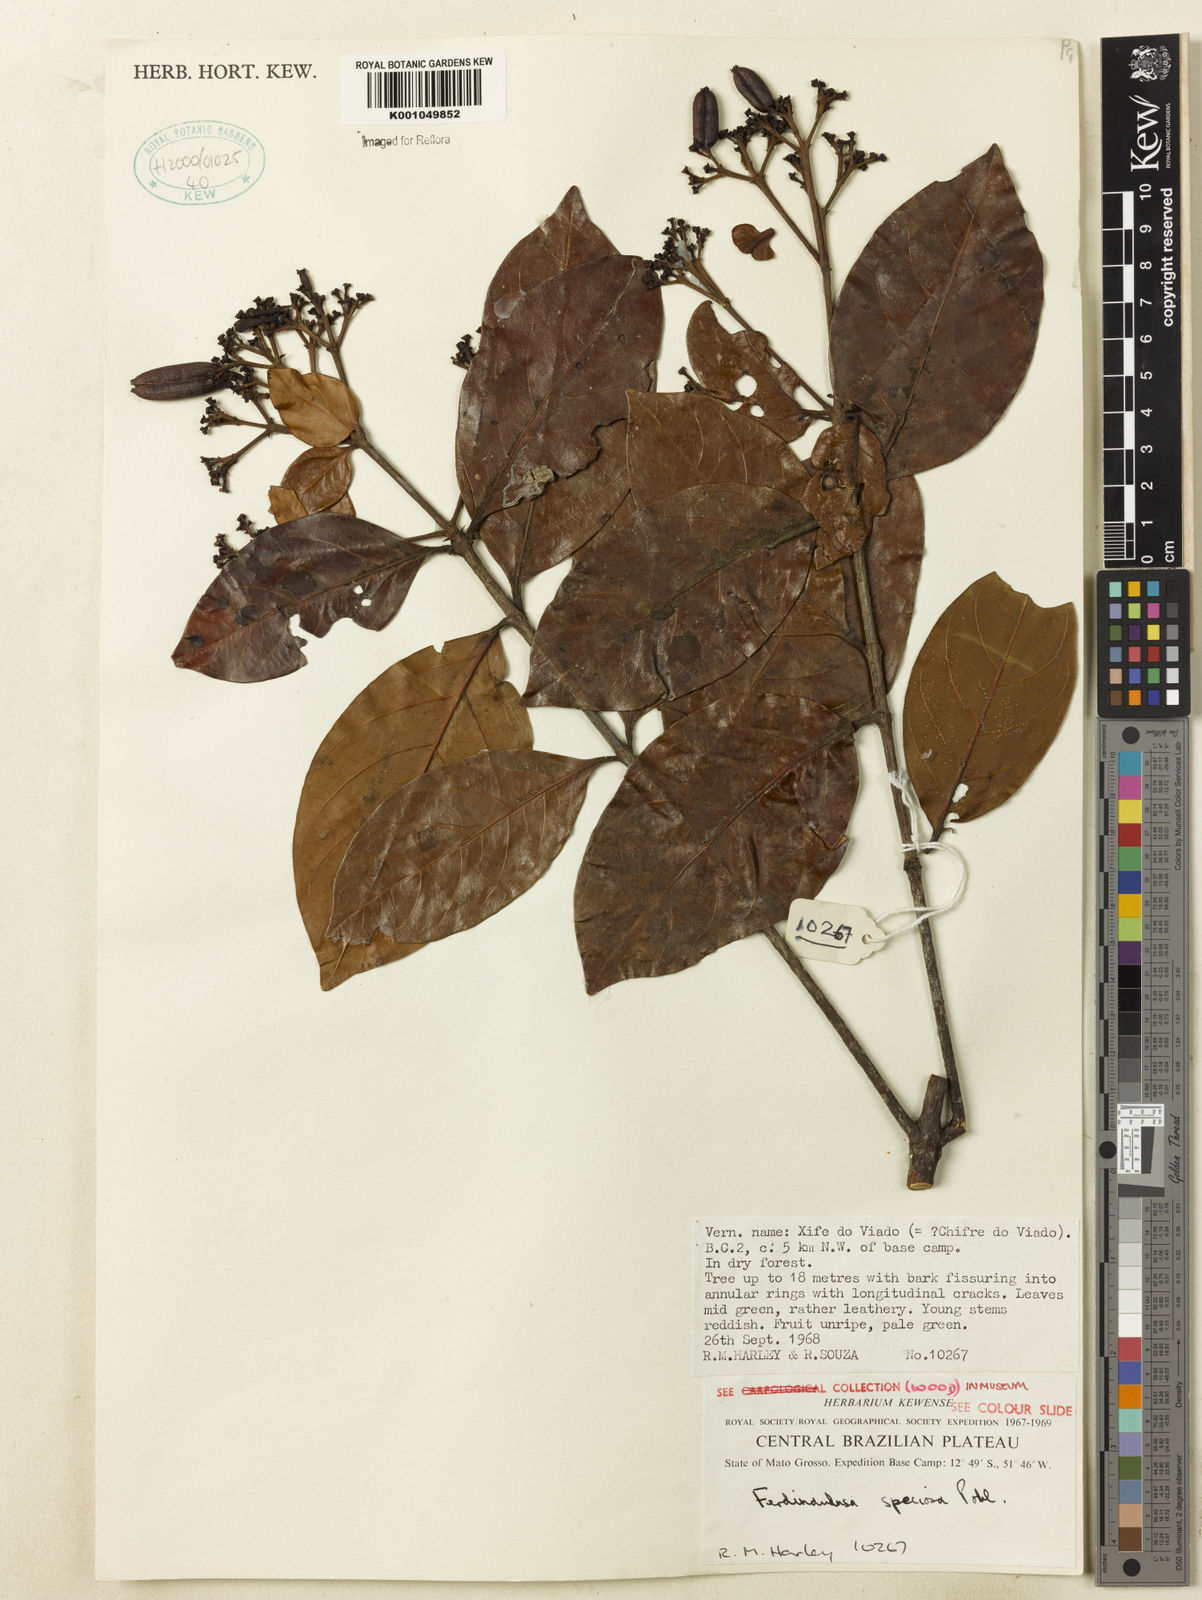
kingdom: Plantae
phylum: Tracheophyta
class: Magnoliopsida
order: Gentianales
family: Rubiaceae
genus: Ferdinandusa
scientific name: Ferdinandusa speciosa
